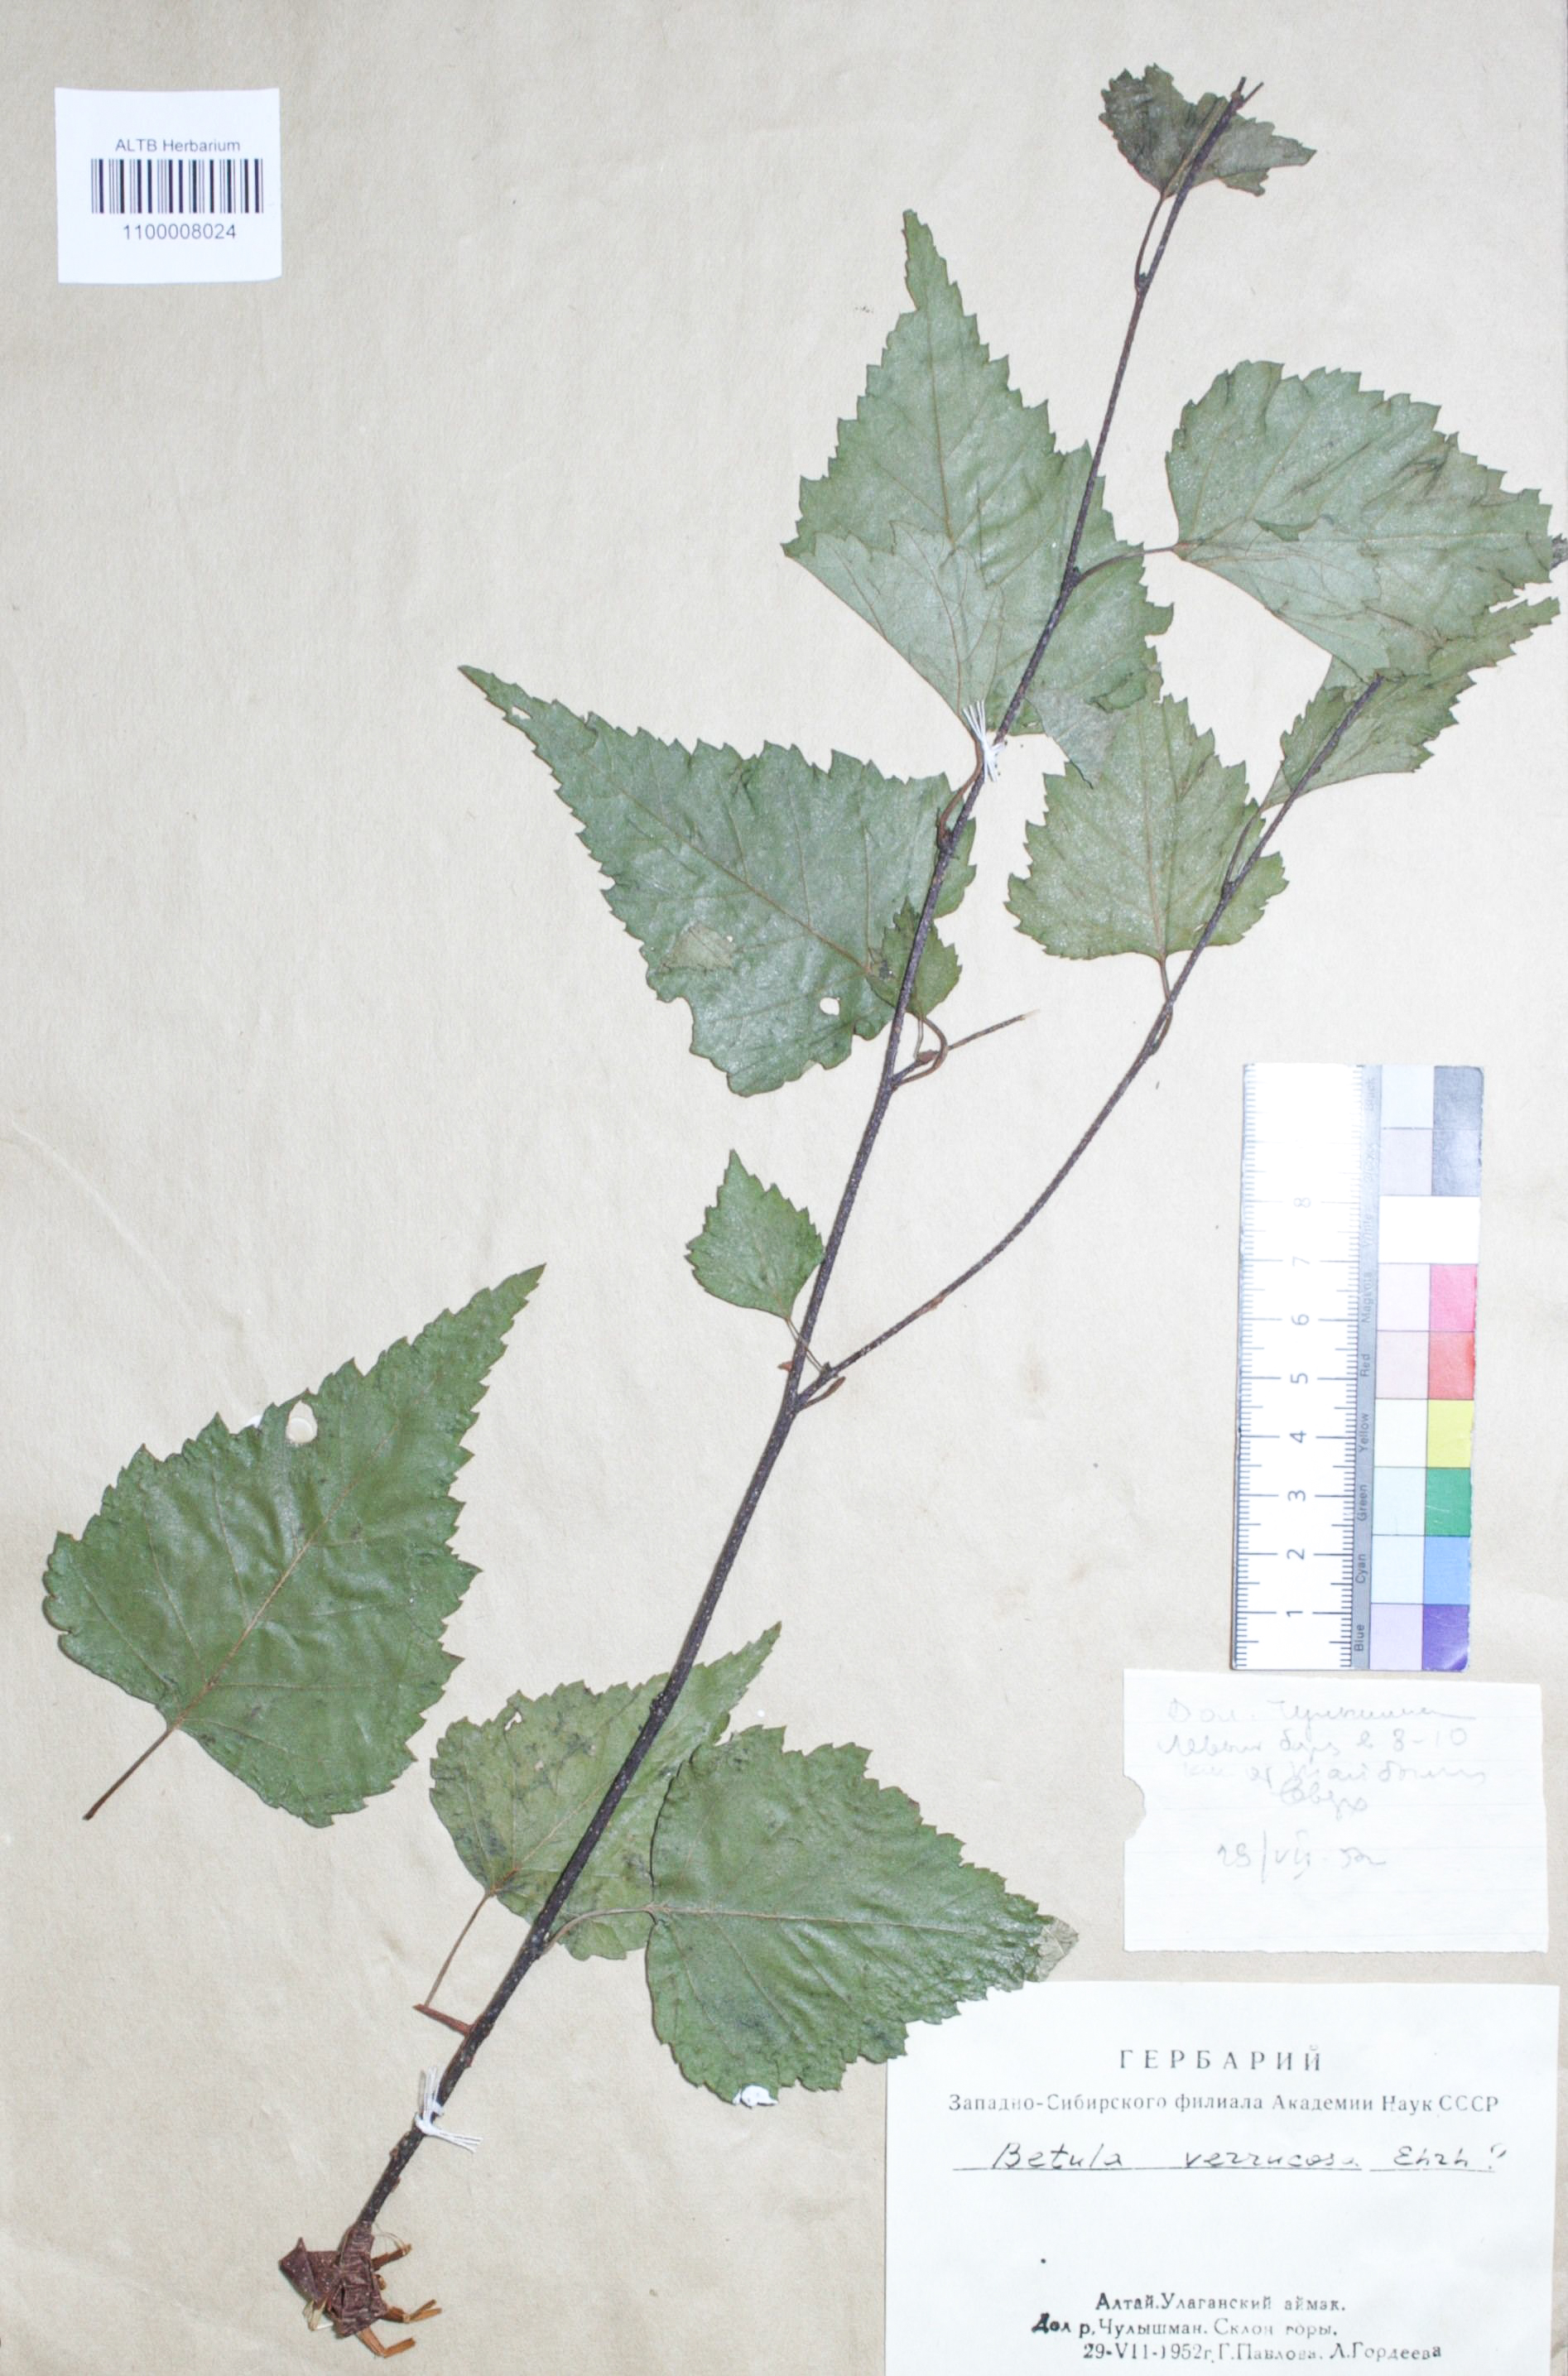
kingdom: Plantae
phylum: Tracheophyta
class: Magnoliopsida
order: Fagales
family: Betulaceae
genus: Betula
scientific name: Betula pendula
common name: Silver birch
